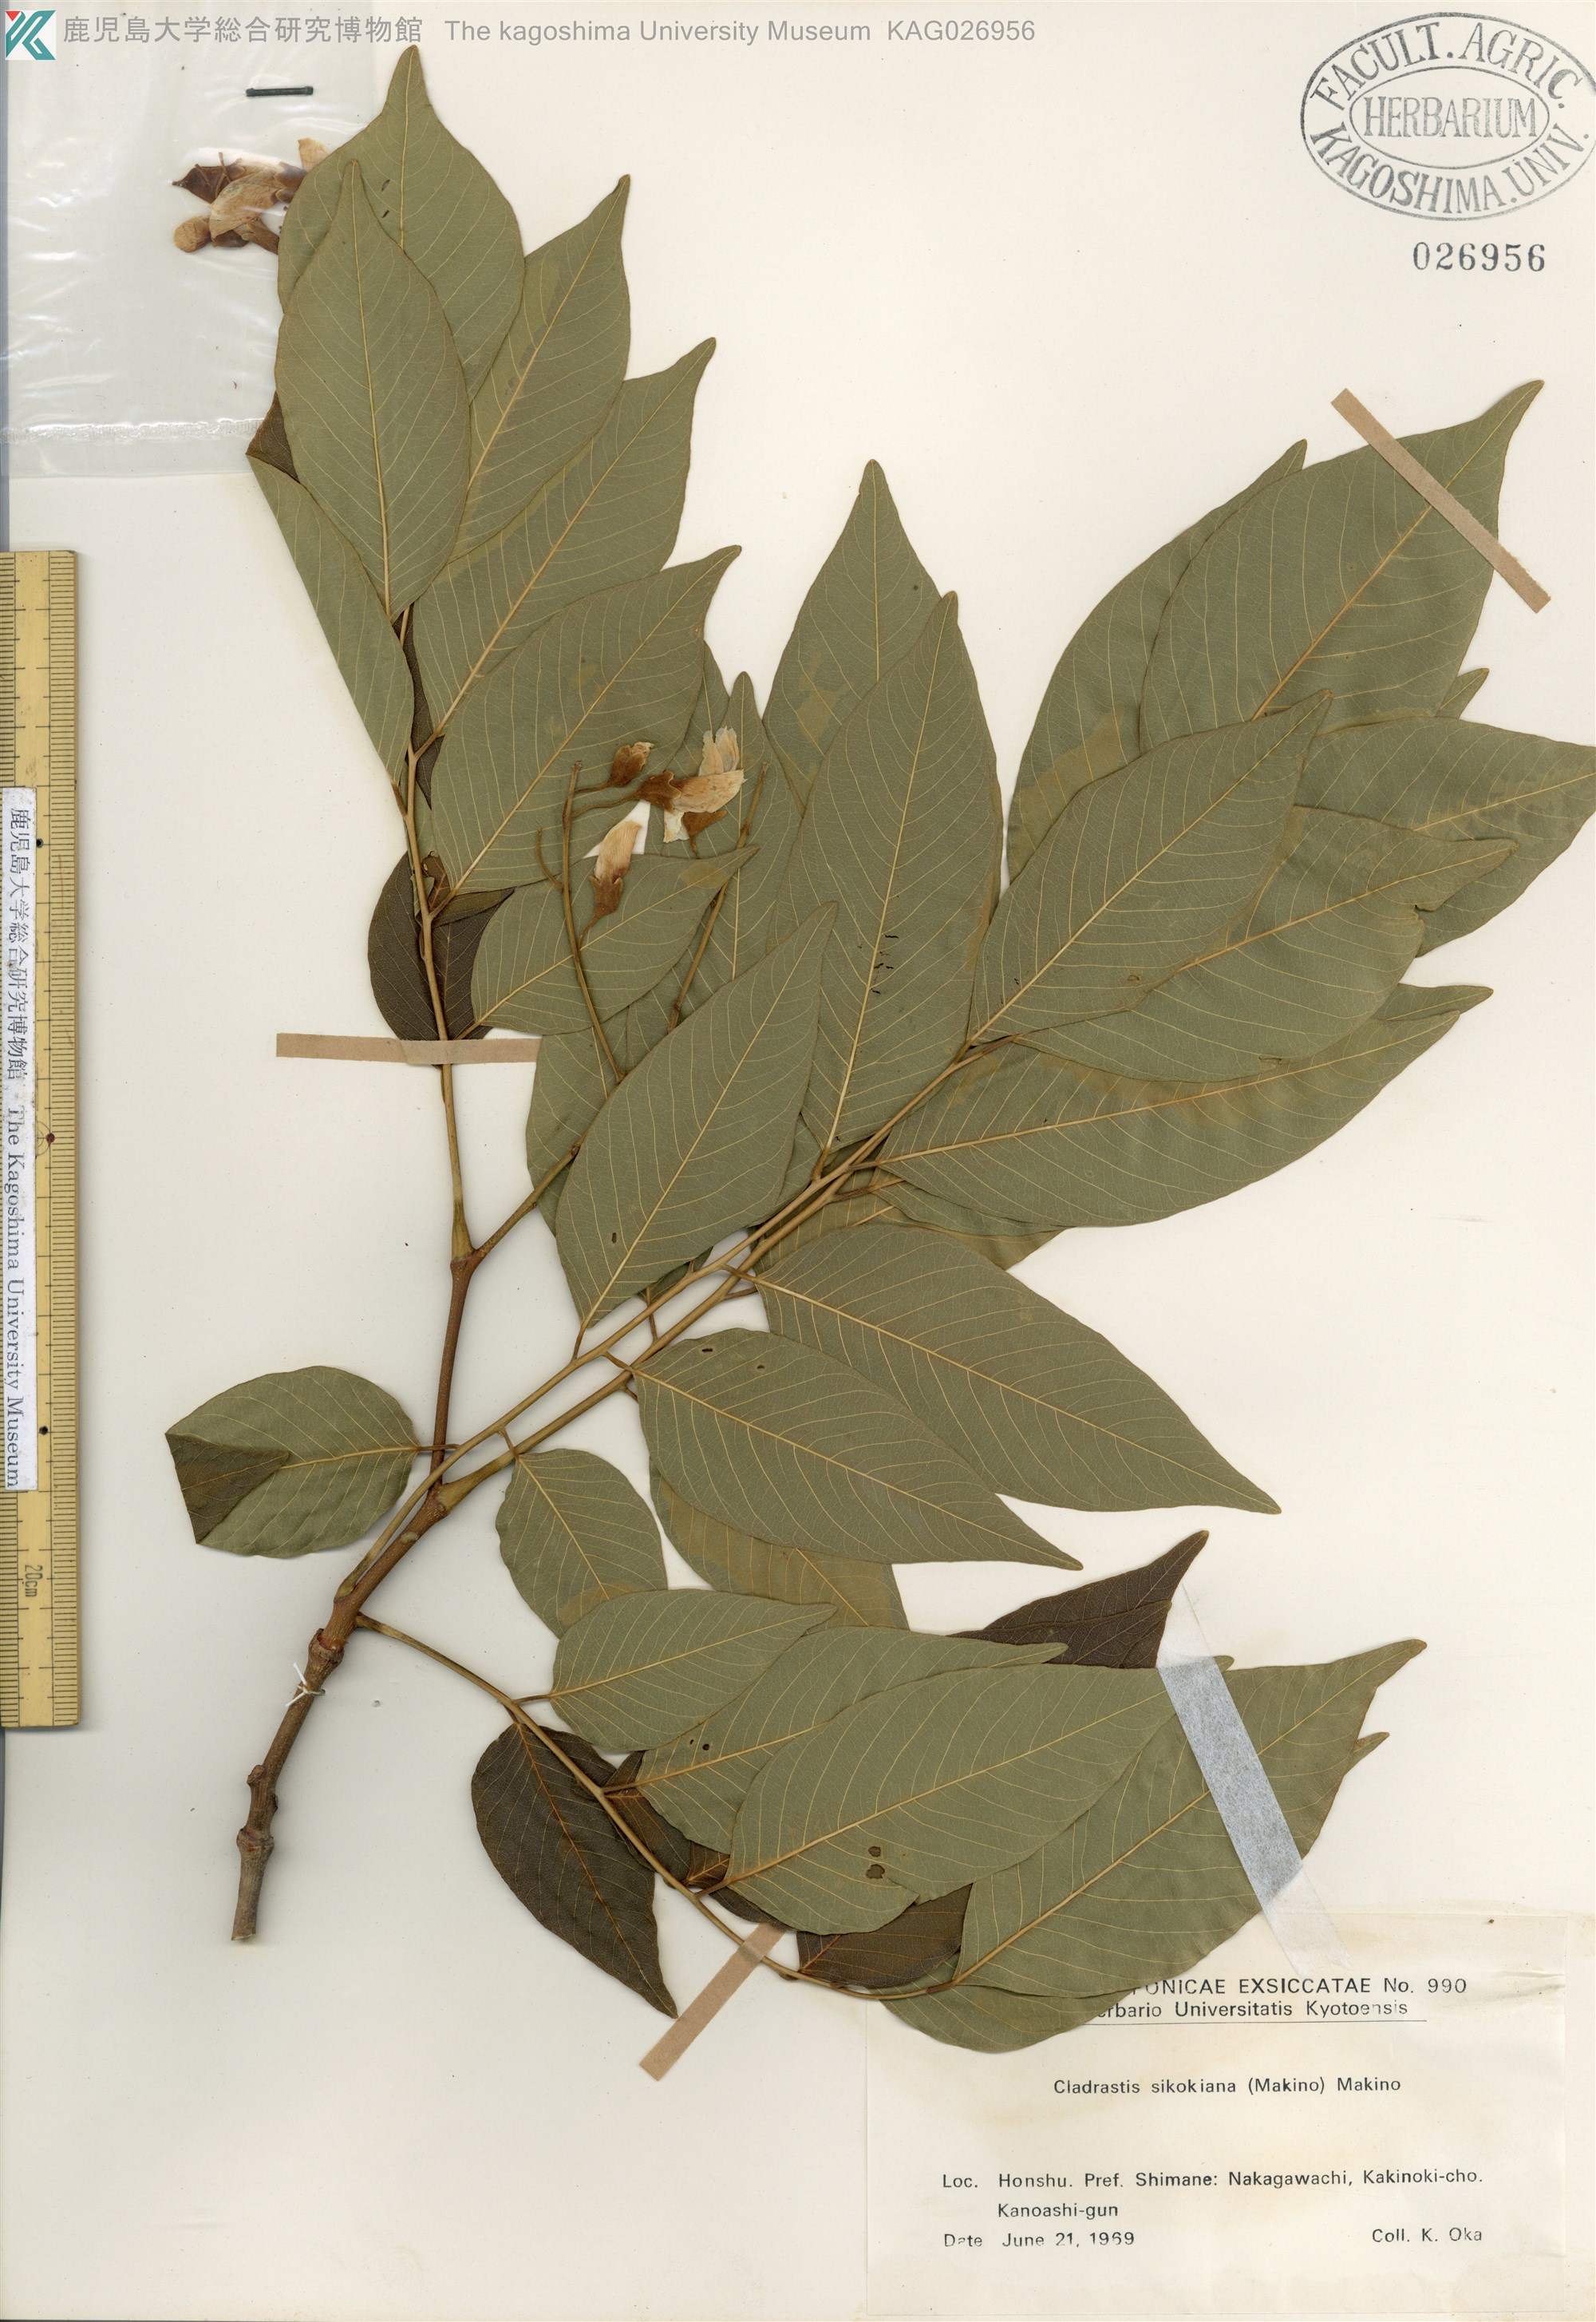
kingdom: Plantae
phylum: Tracheophyta
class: Magnoliopsida
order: Fabales
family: Fabaceae
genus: Cladrastis
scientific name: Cladrastis shikokiana
